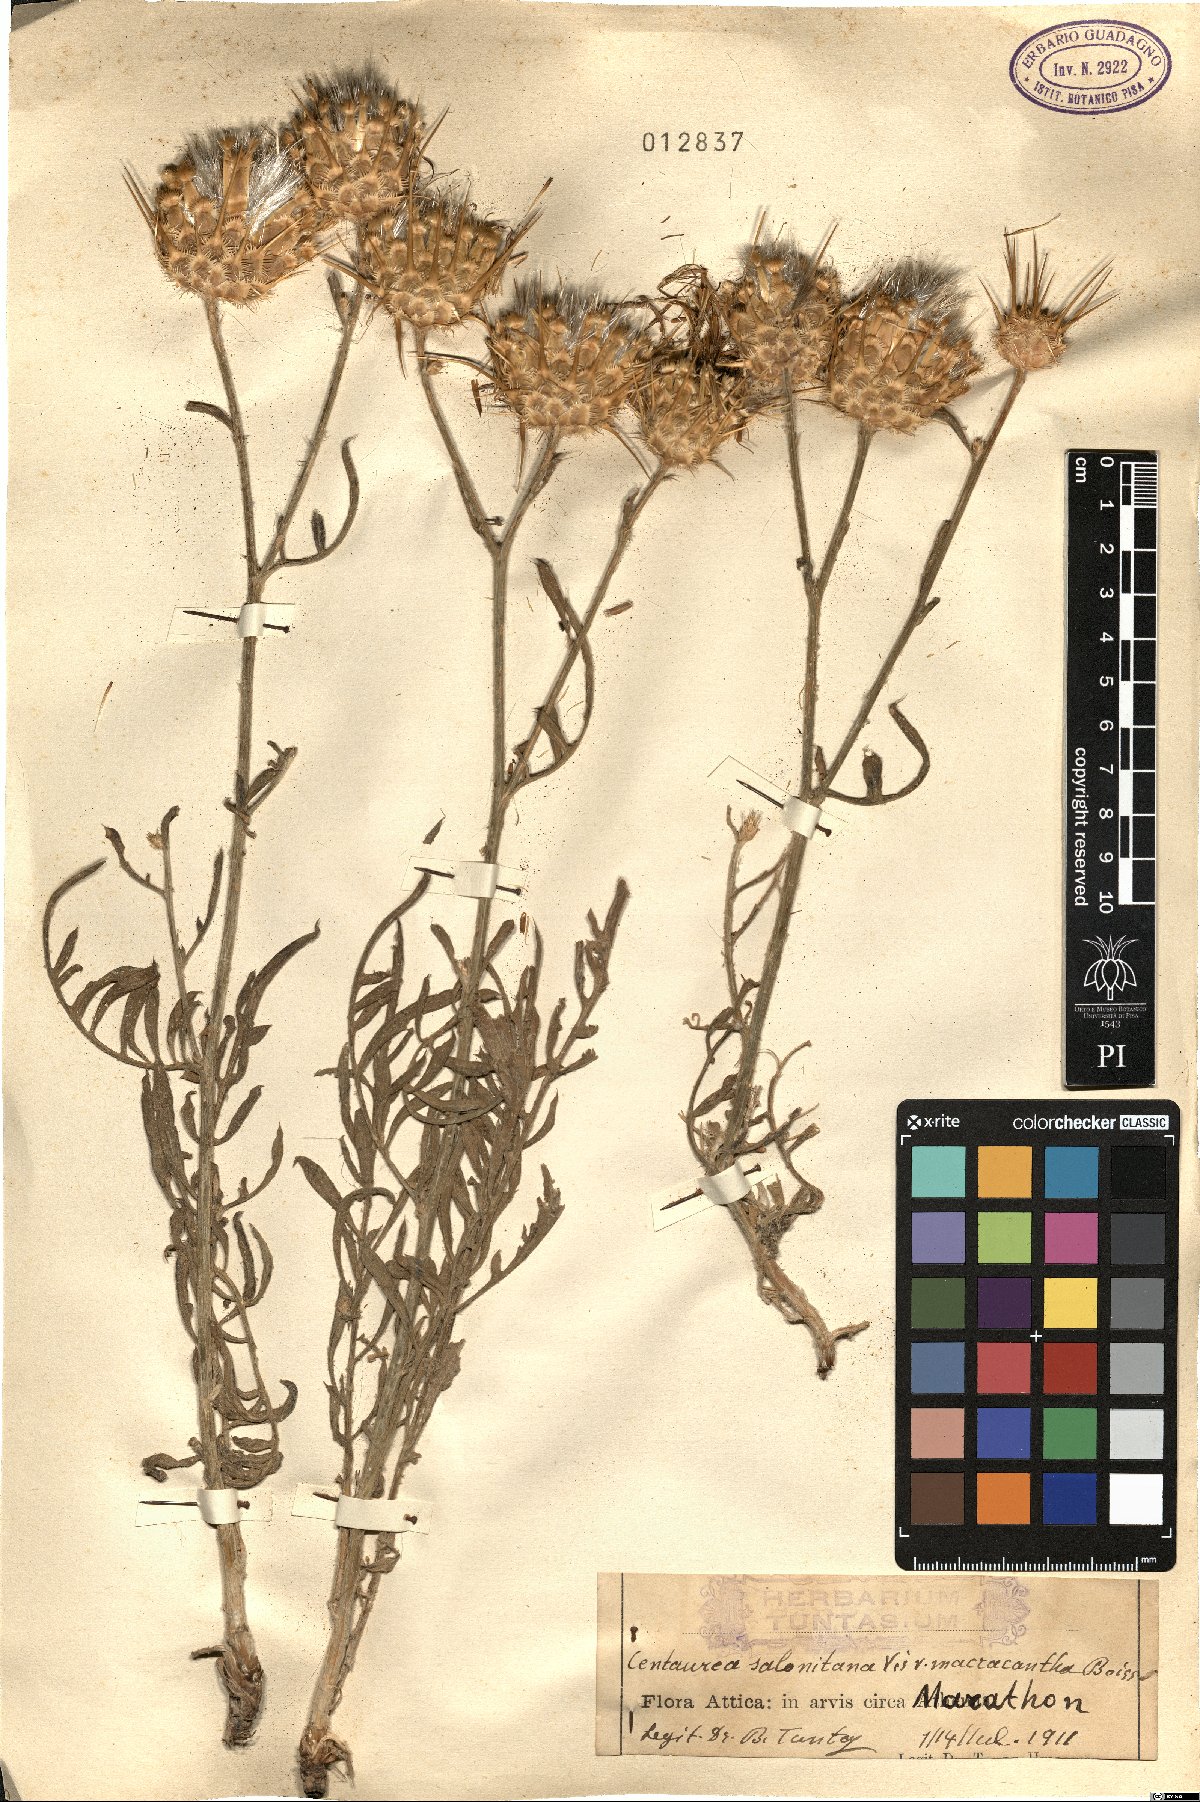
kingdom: Plantae
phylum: Tracheophyta
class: Magnoliopsida
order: Asterales
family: Asteraceae
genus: Centaurea
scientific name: Centaurea salonitana
